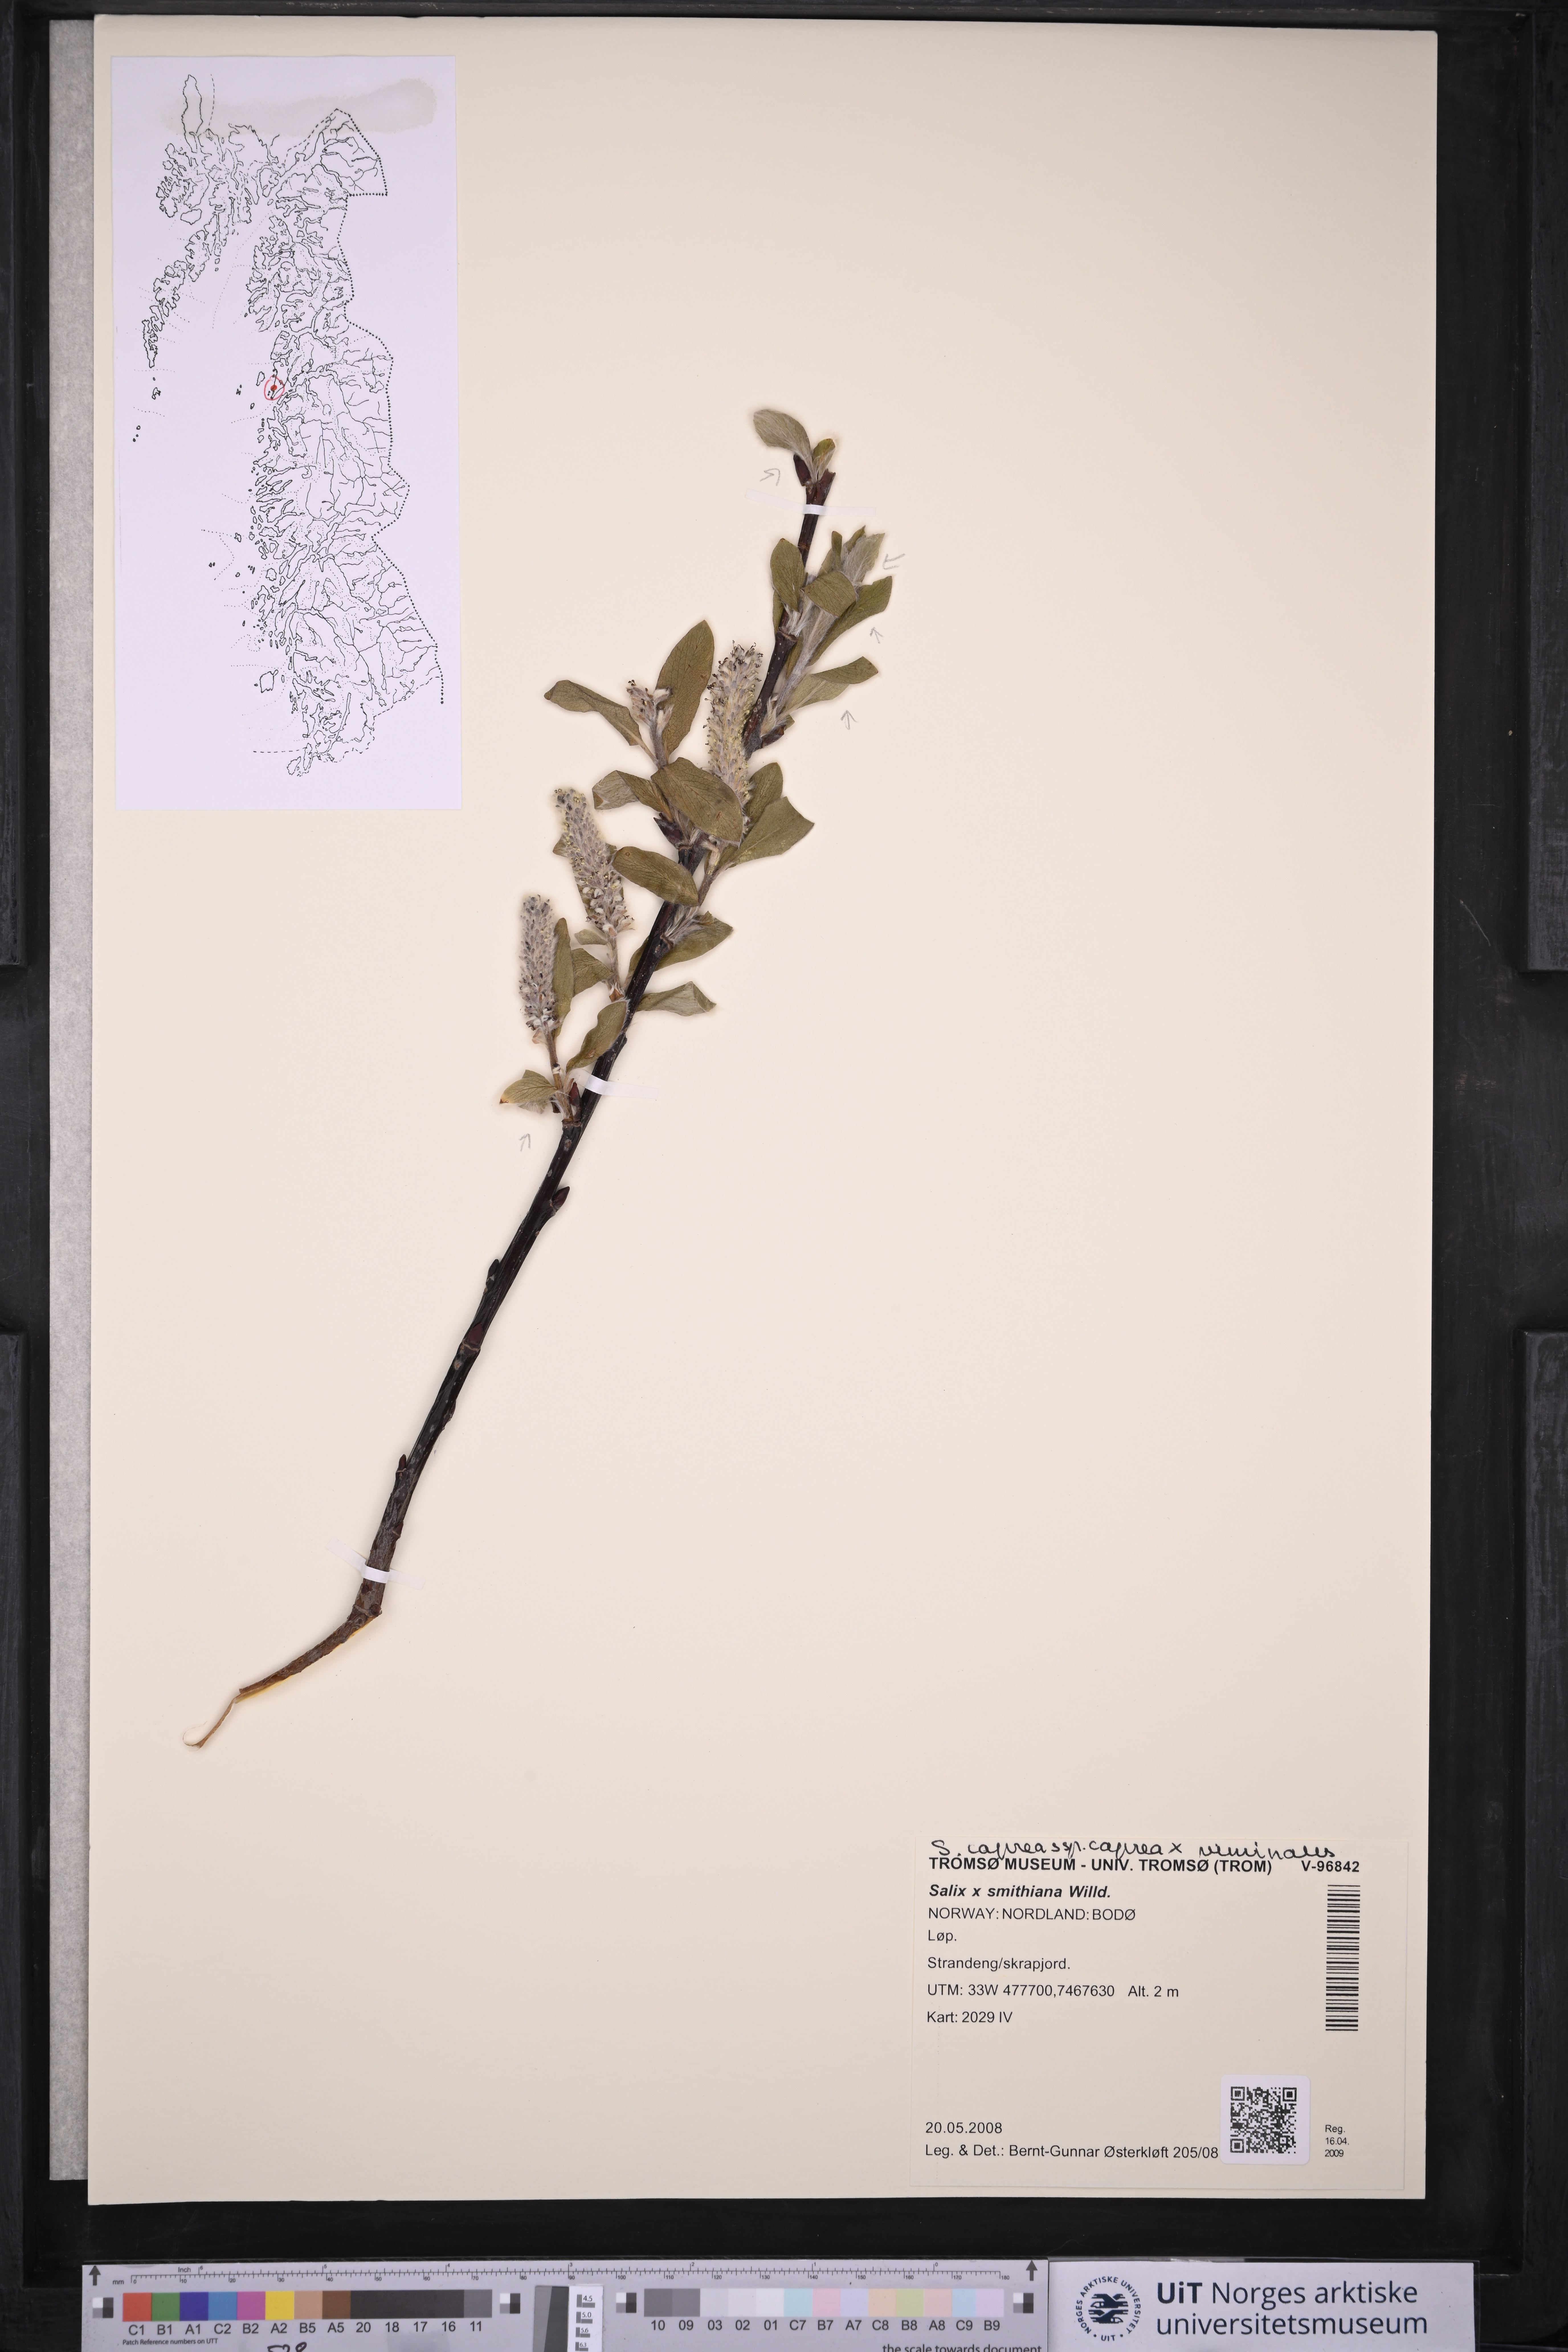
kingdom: Plantae
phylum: Tracheophyta
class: Magnoliopsida
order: Malpighiales
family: Salicaceae
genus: Salix
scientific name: Salix smithiana
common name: Silky-leaved osier
